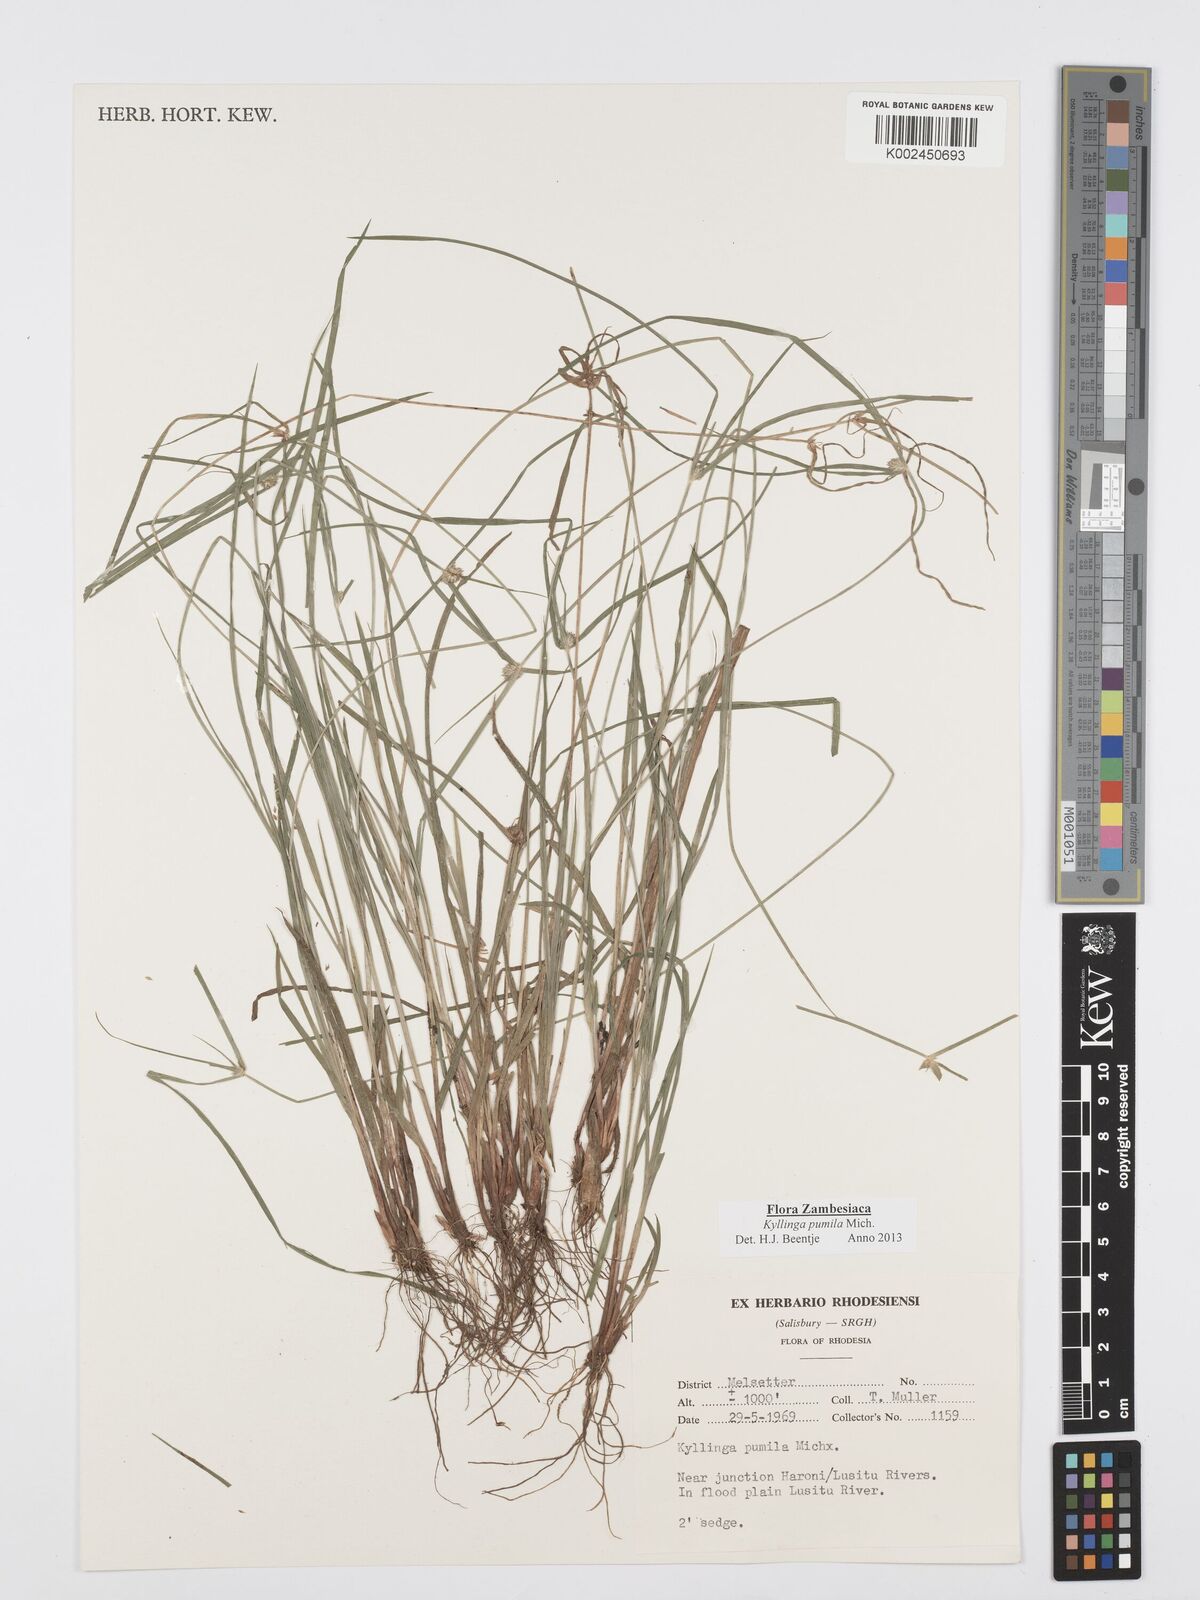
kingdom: Plantae
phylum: Tracheophyta
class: Liliopsida
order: Poales
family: Cyperaceae
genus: Cyperus
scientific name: Cyperus pumilus
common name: Low flatsedge
